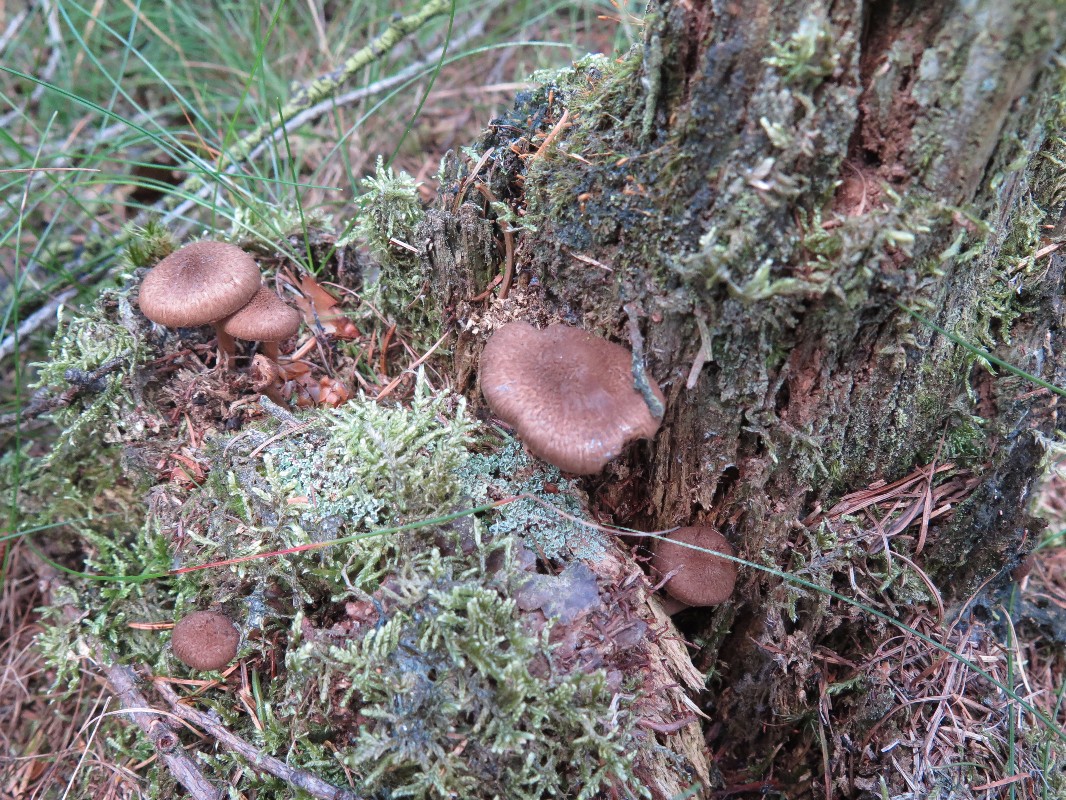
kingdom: Fungi
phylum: Basidiomycota
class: Agaricomycetes
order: Agaricales
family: Inocybaceae
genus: Inocybe
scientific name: Inocybe
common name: trævlhat
